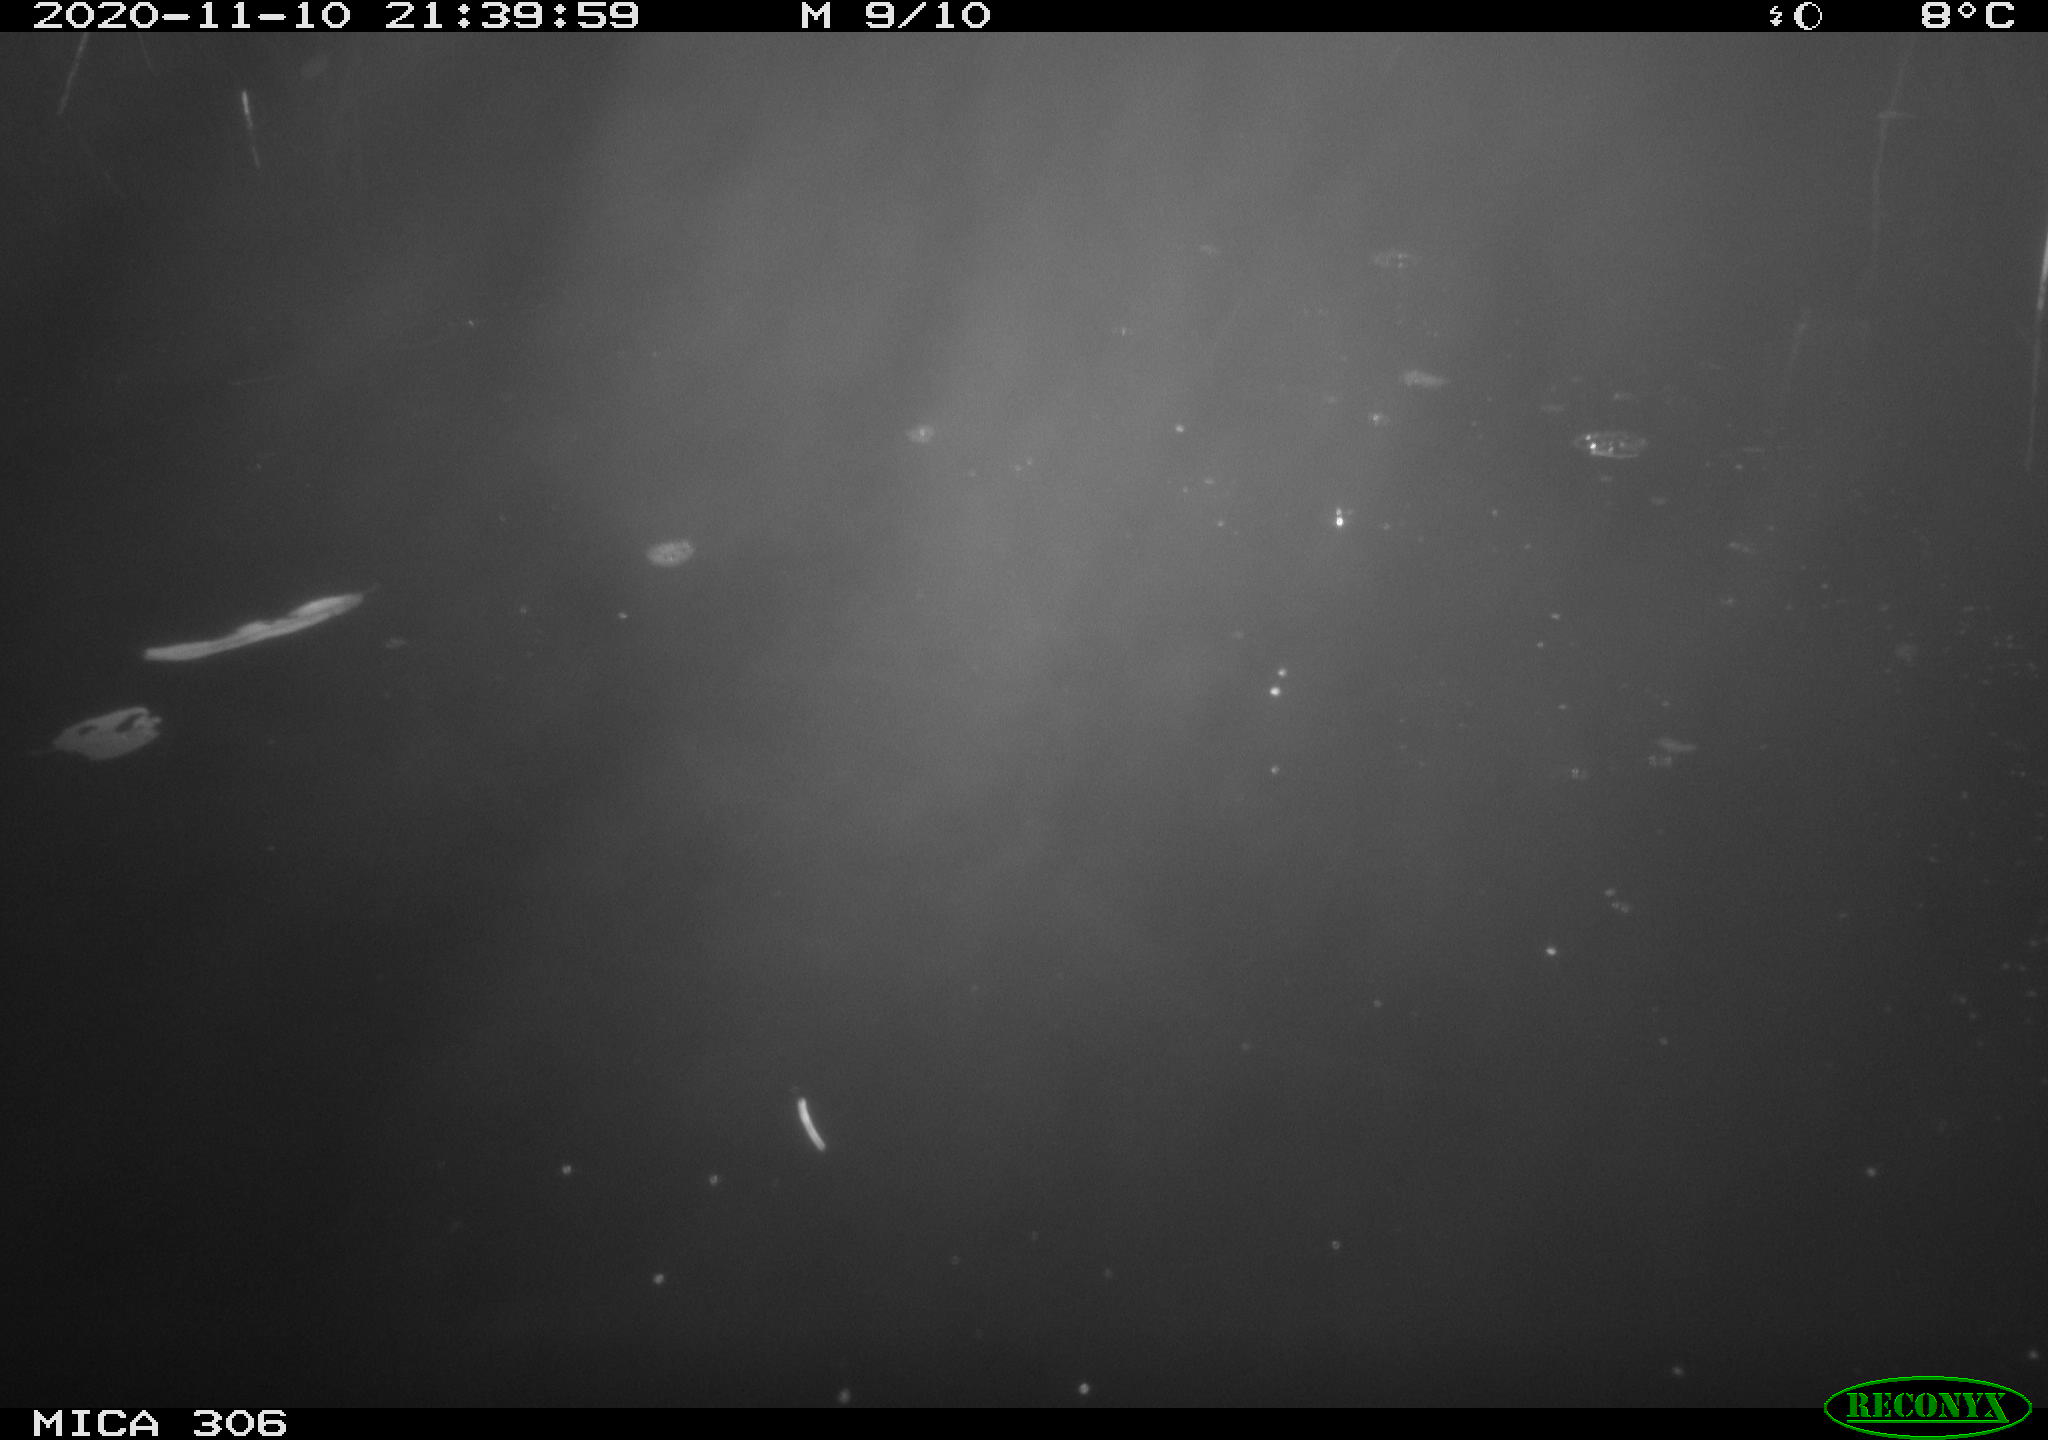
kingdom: Animalia
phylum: Chordata
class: Mammalia
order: Rodentia
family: Cricetidae
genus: Ondatra
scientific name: Ondatra zibethicus
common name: Muskrat
